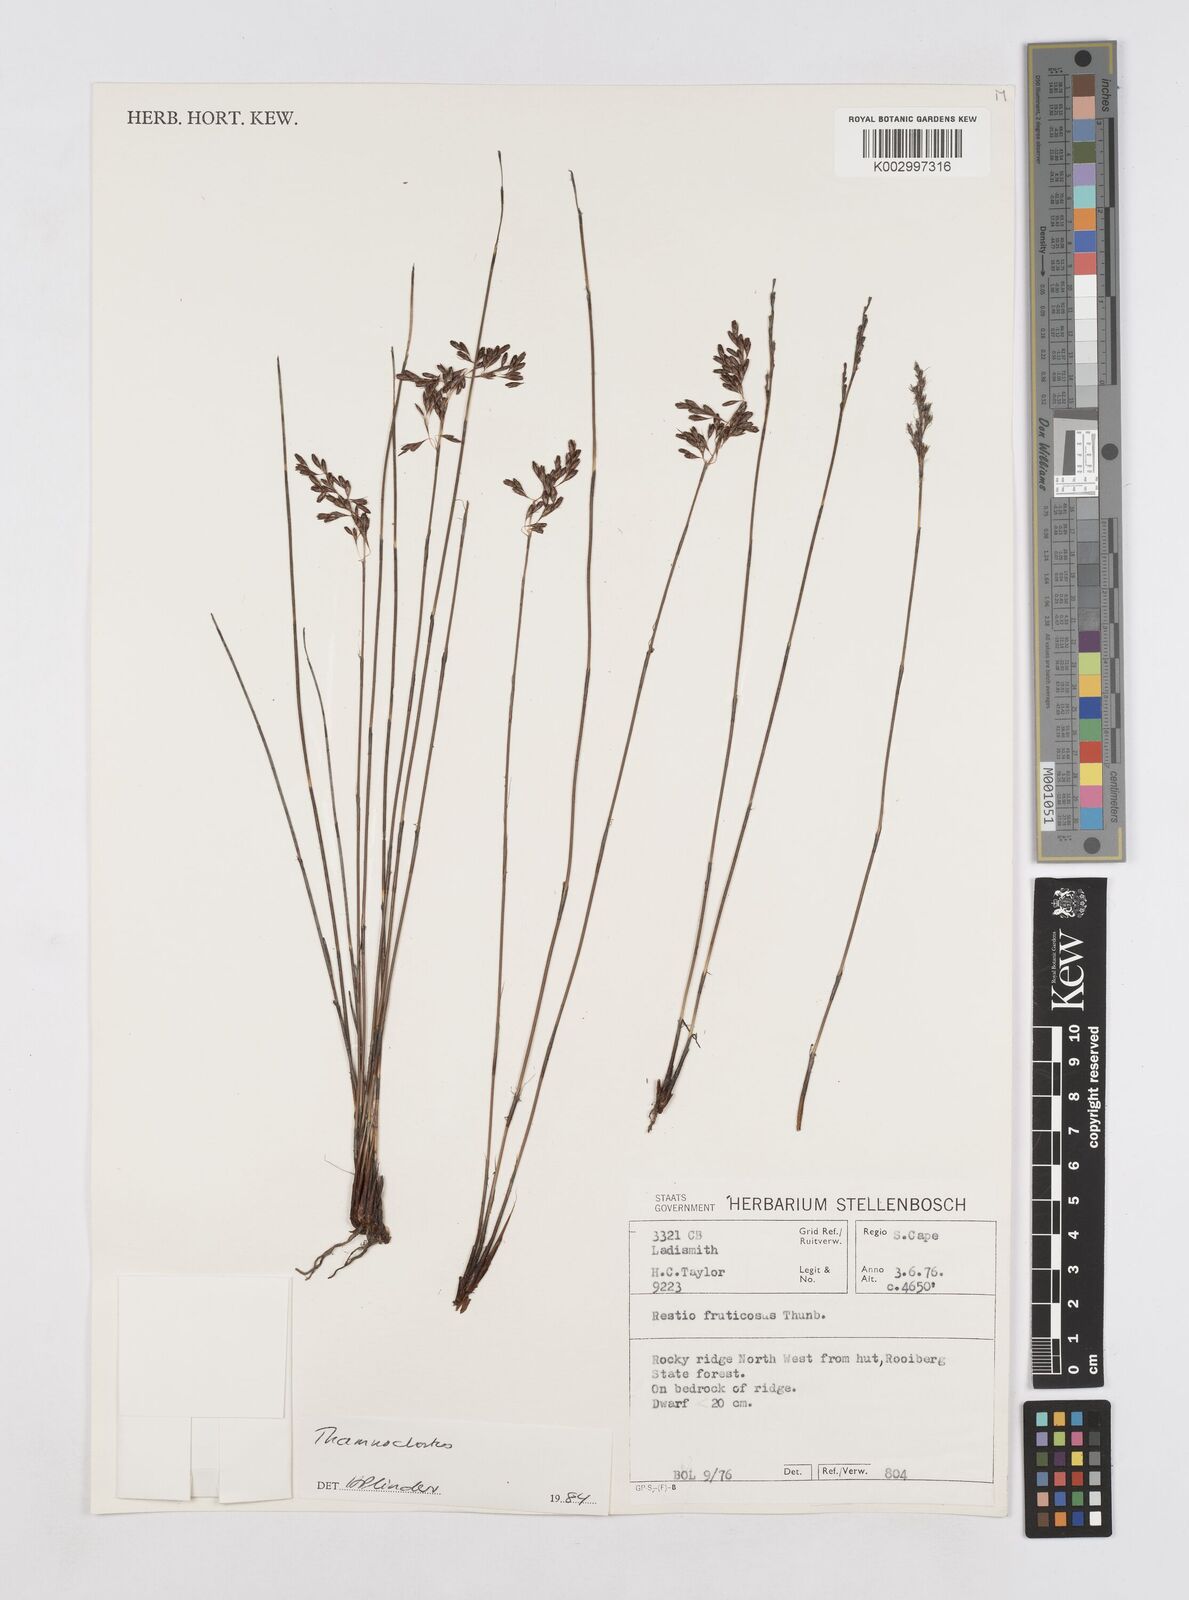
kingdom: Plantae
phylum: Tracheophyta
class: Liliopsida
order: Poales
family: Restionaceae
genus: Thamnochortus
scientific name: Thamnochortus
